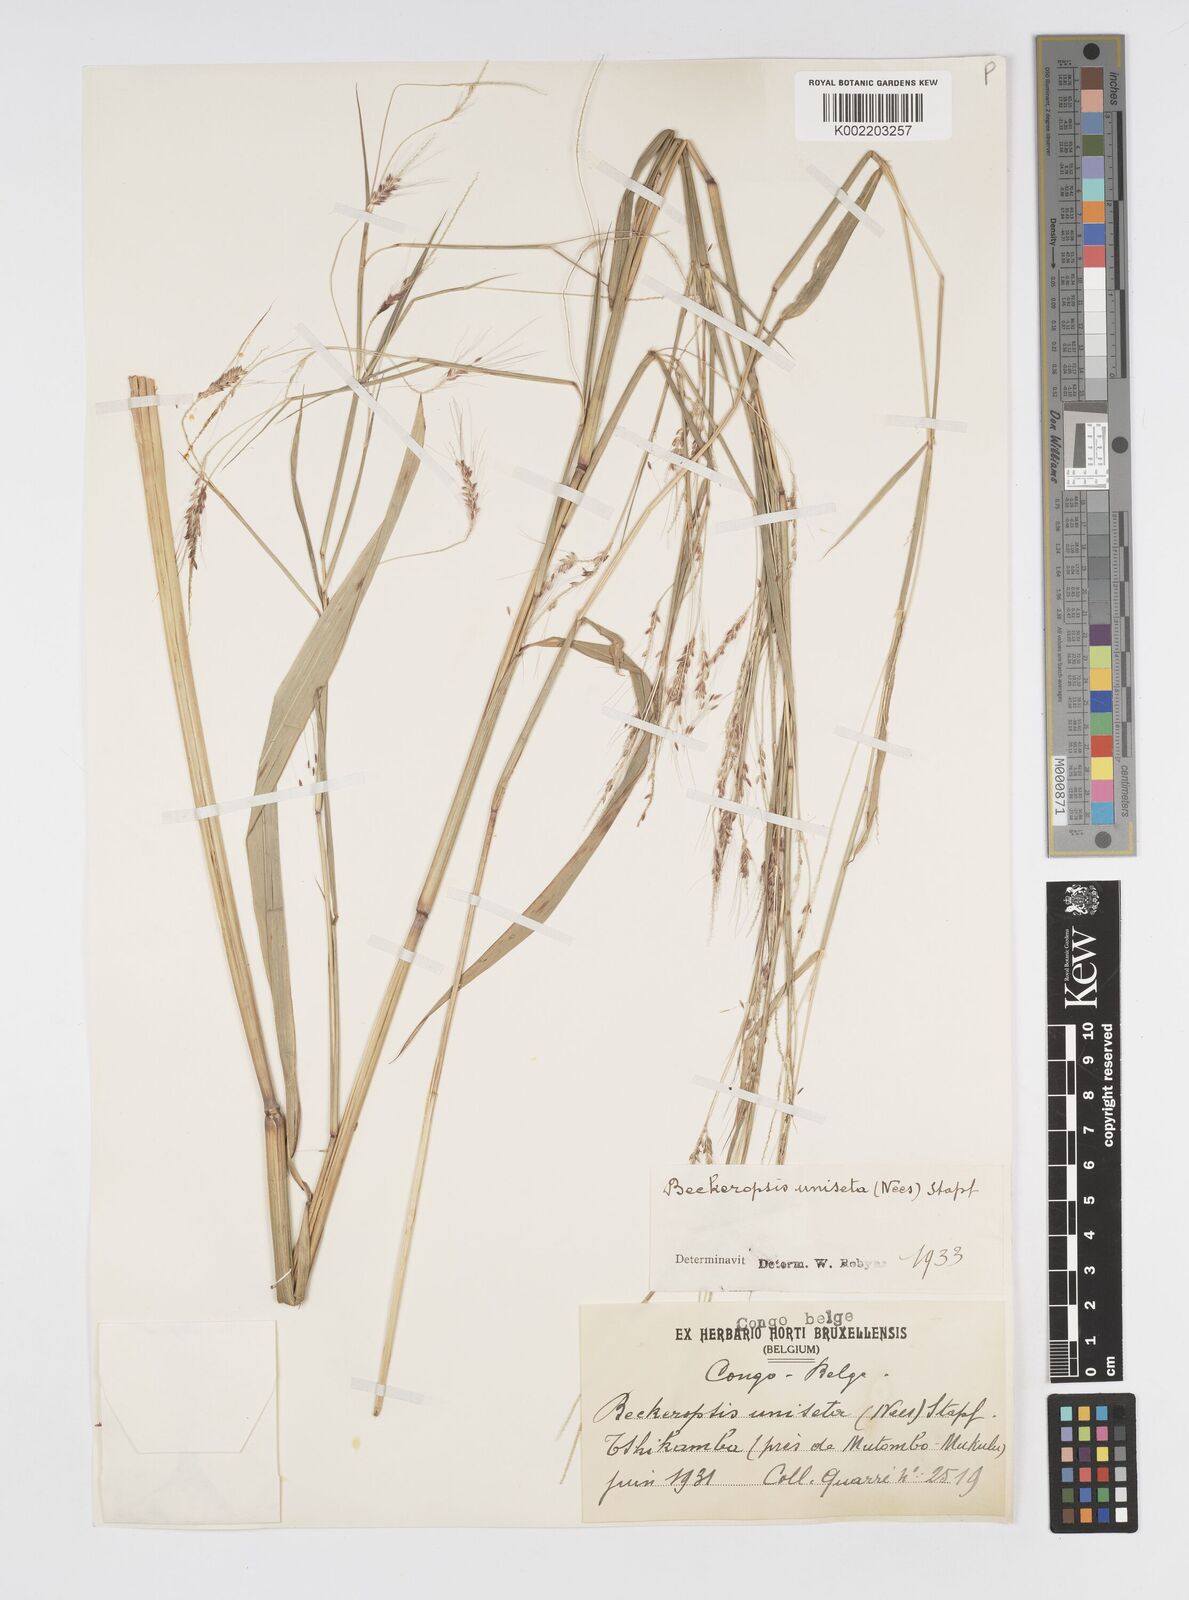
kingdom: Plantae
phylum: Tracheophyta
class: Liliopsida
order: Poales
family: Poaceae
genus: Cenchrus
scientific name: Cenchrus unisetus
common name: Natal grass
